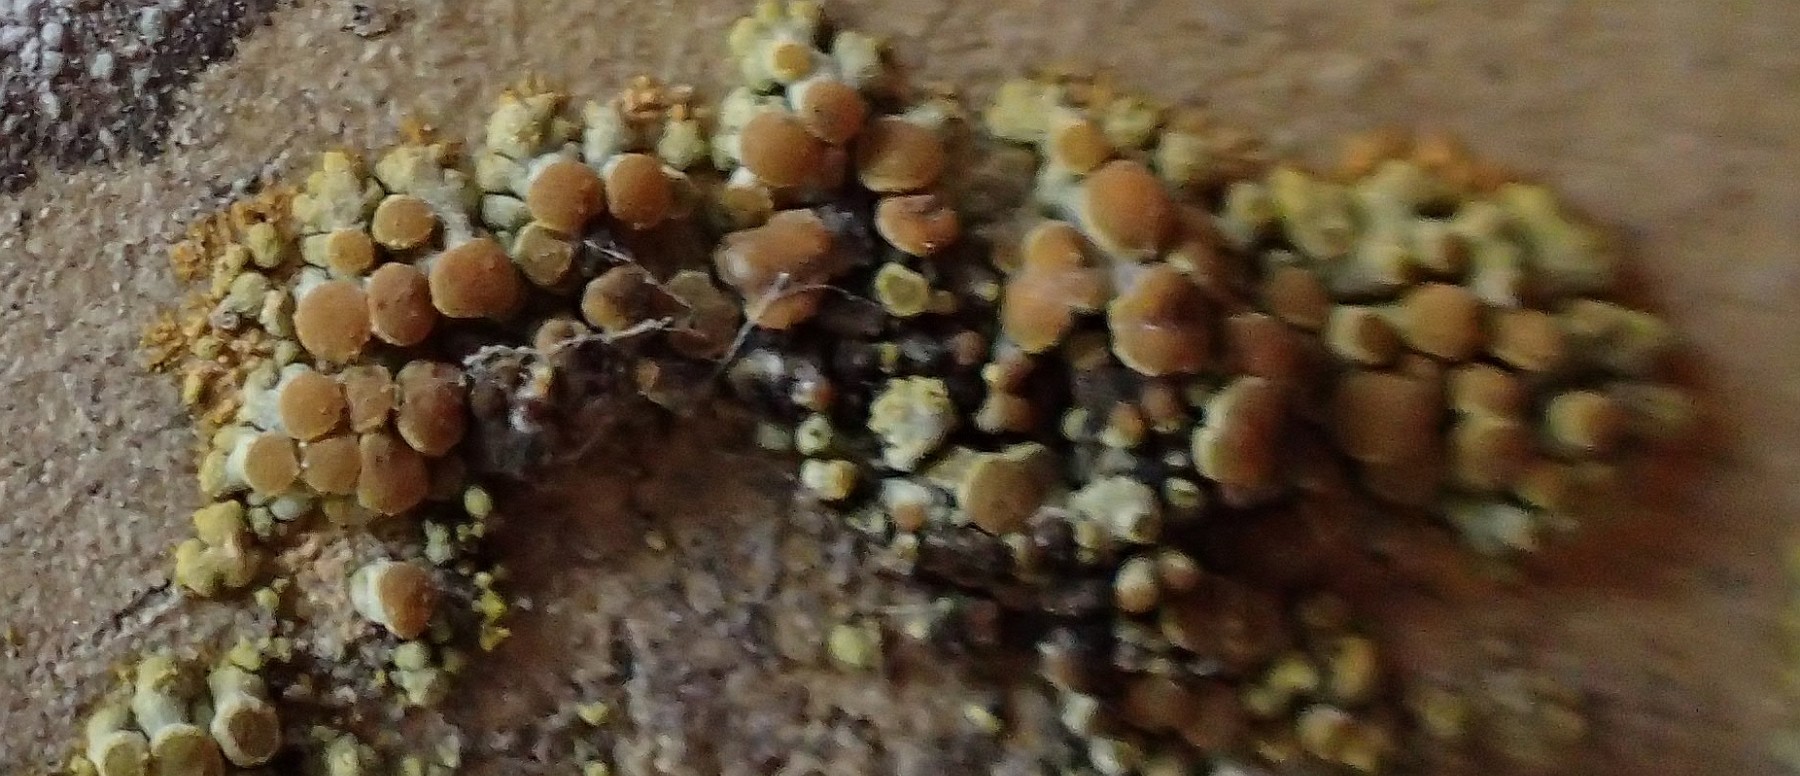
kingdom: Fungi
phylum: Ascomycota
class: Lecanoromycetes
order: Teloschistales
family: Teloschistaceae
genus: Calogaya
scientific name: Calogaya
